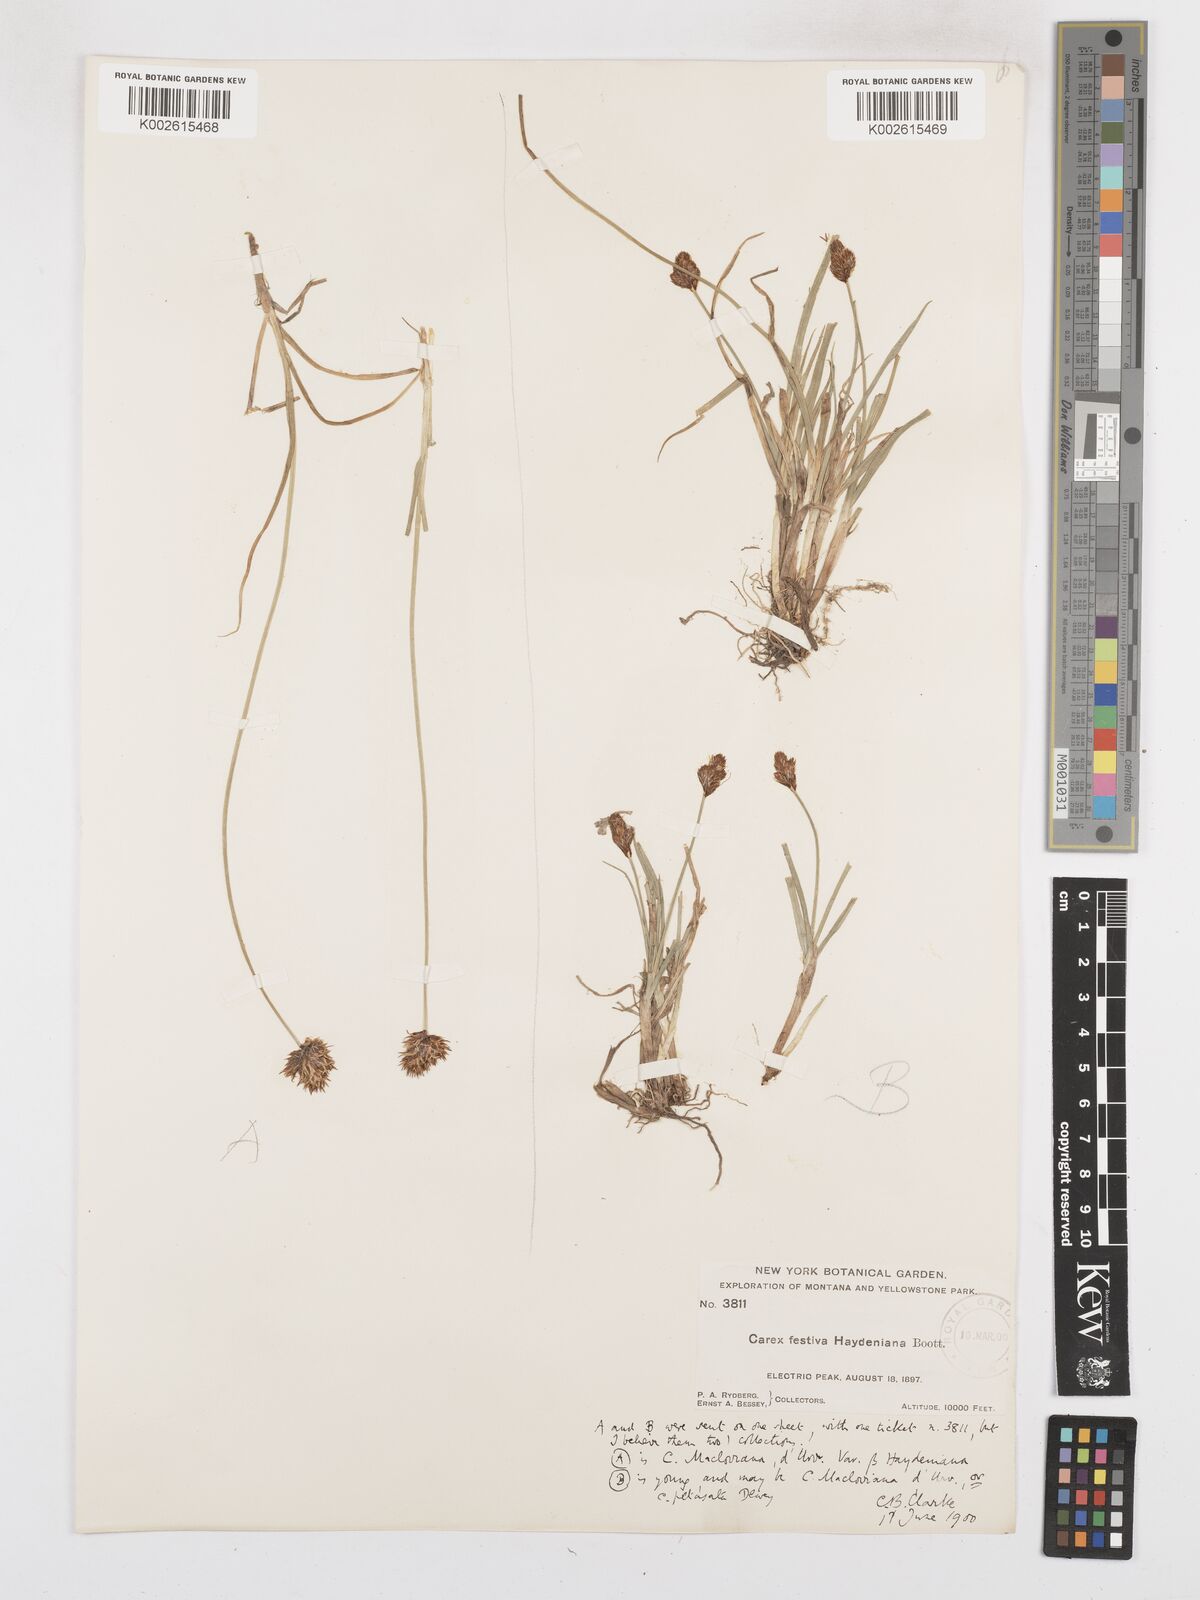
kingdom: Plantae
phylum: Tracheophyta
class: Liliopsida
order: Poales
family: Cyperaceae
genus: Carex
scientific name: Carex haydeniana
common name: Cloud sedge
